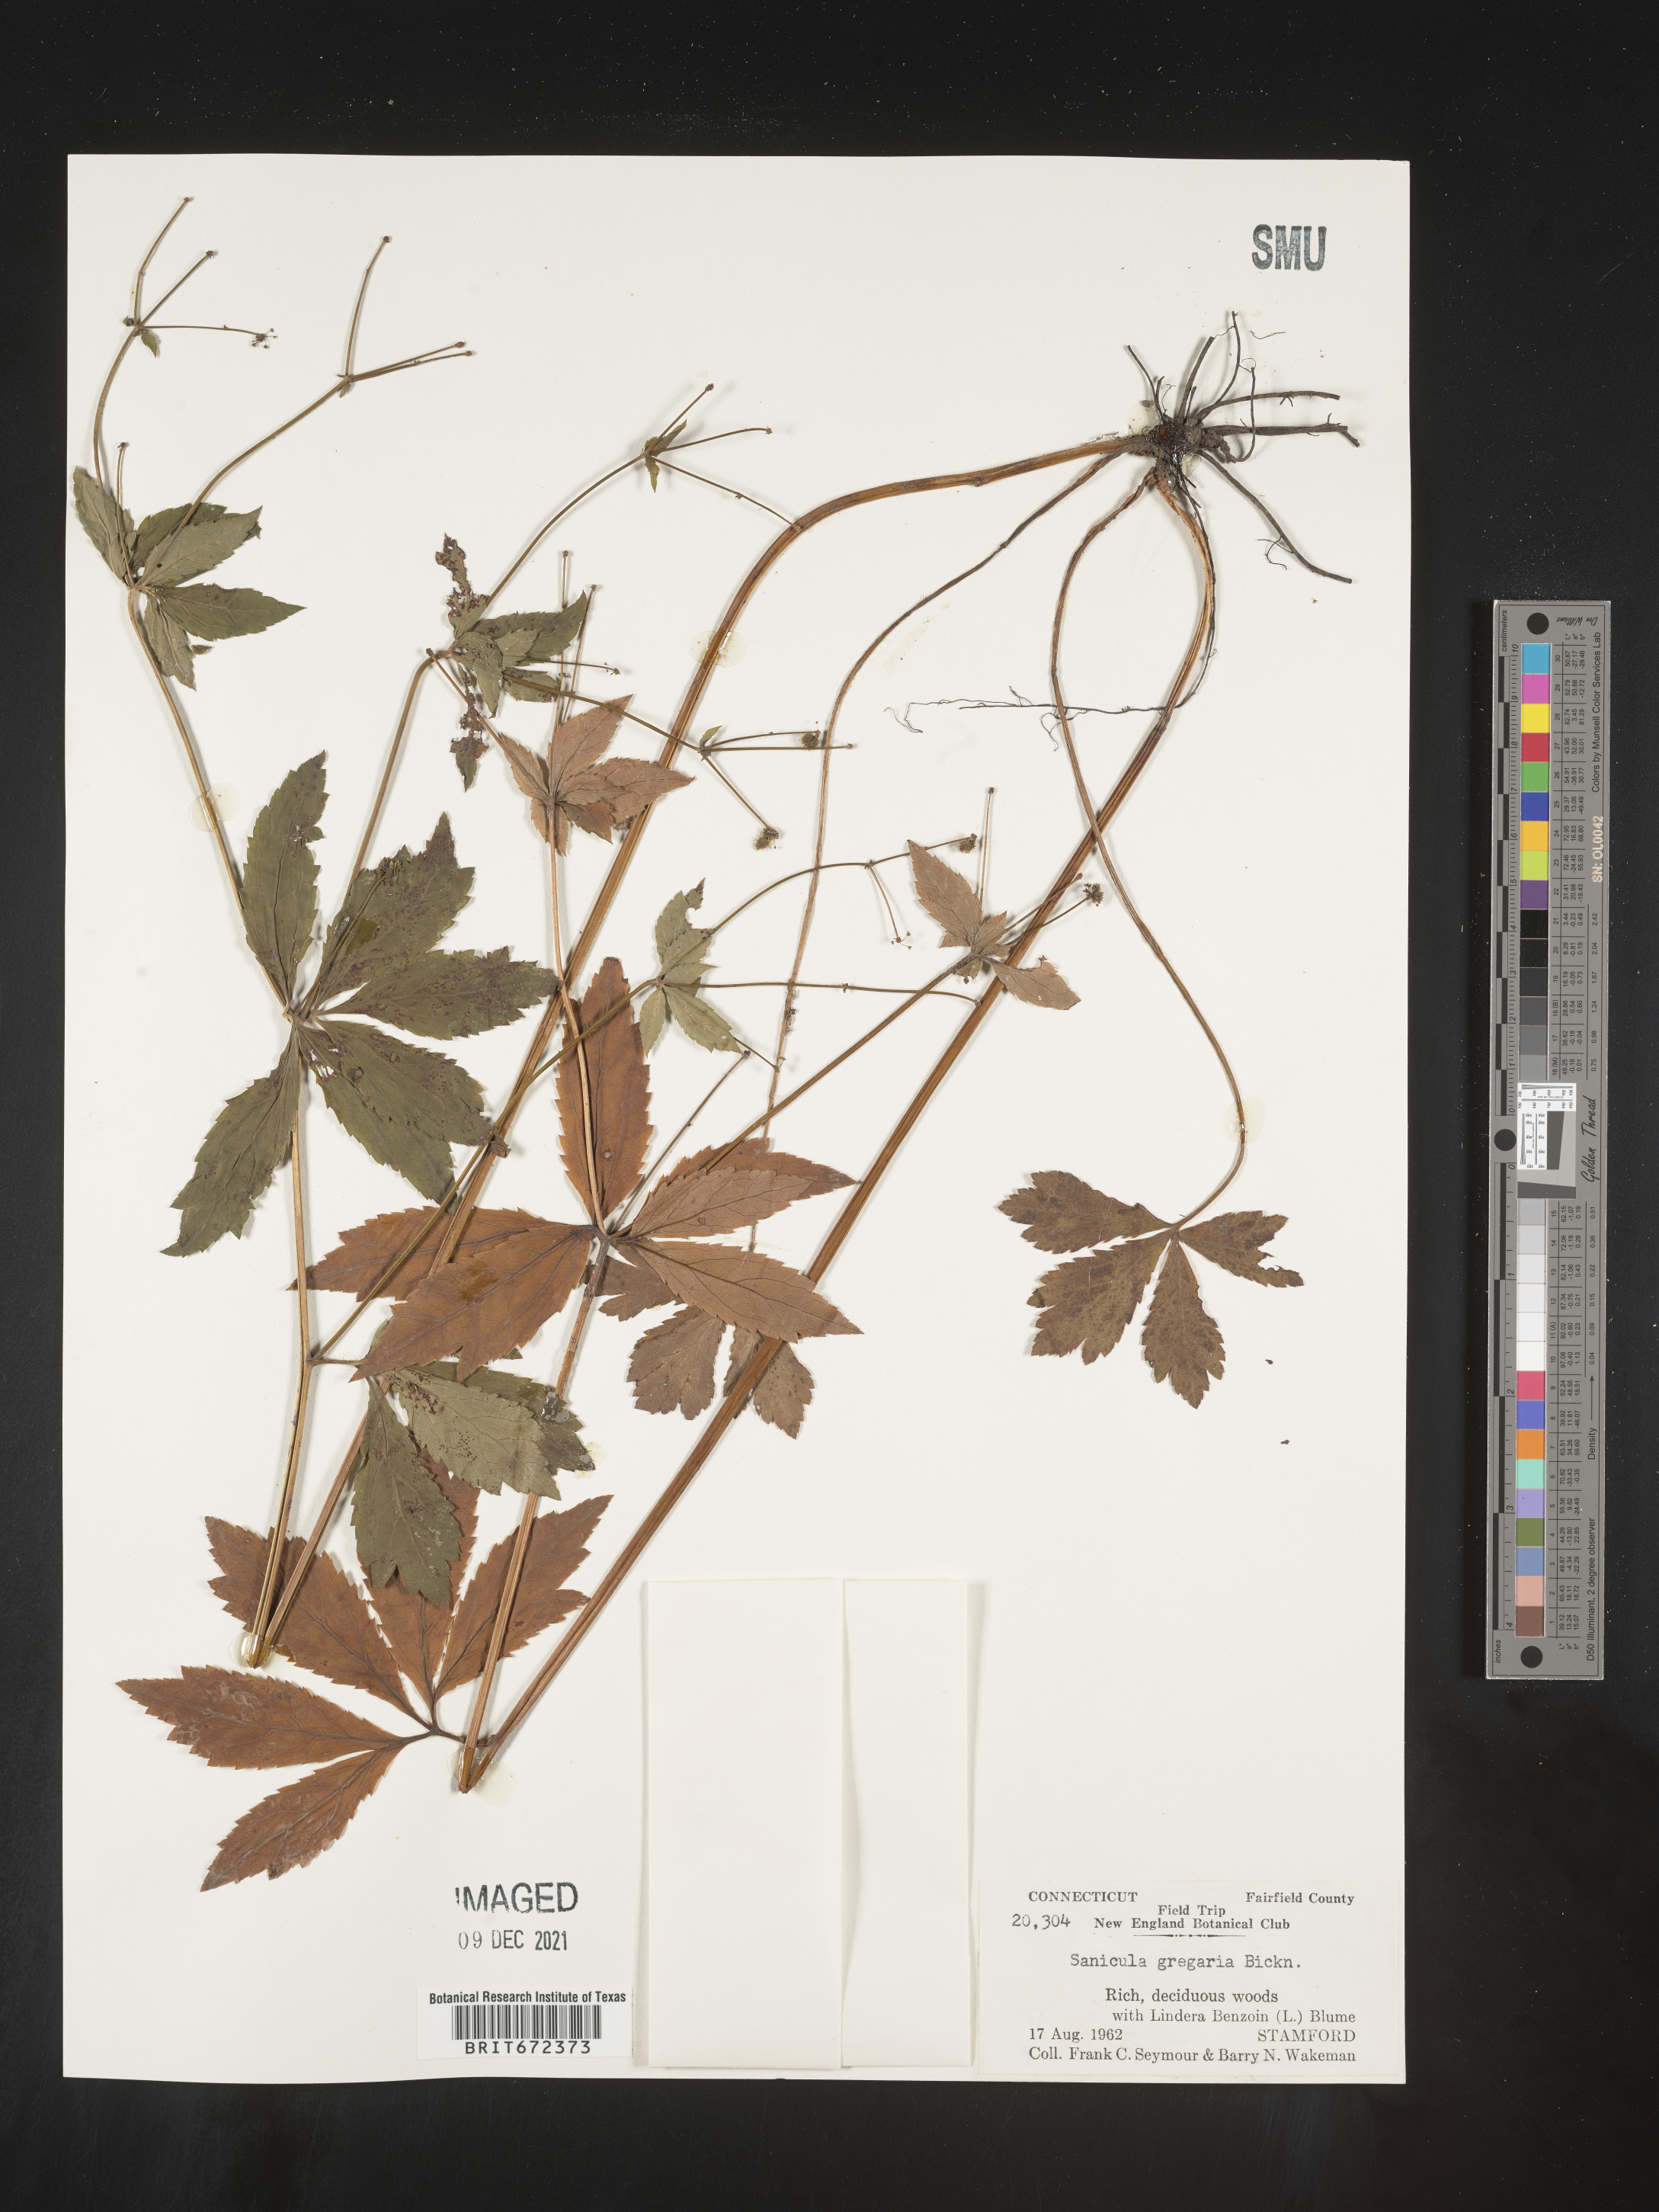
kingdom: Plantae
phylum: Tracheophyta
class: Magnoliopsida
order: Apiales
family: Apiaceae
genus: Sanicula
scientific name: Sanicula odorata
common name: Cluster sanicle
